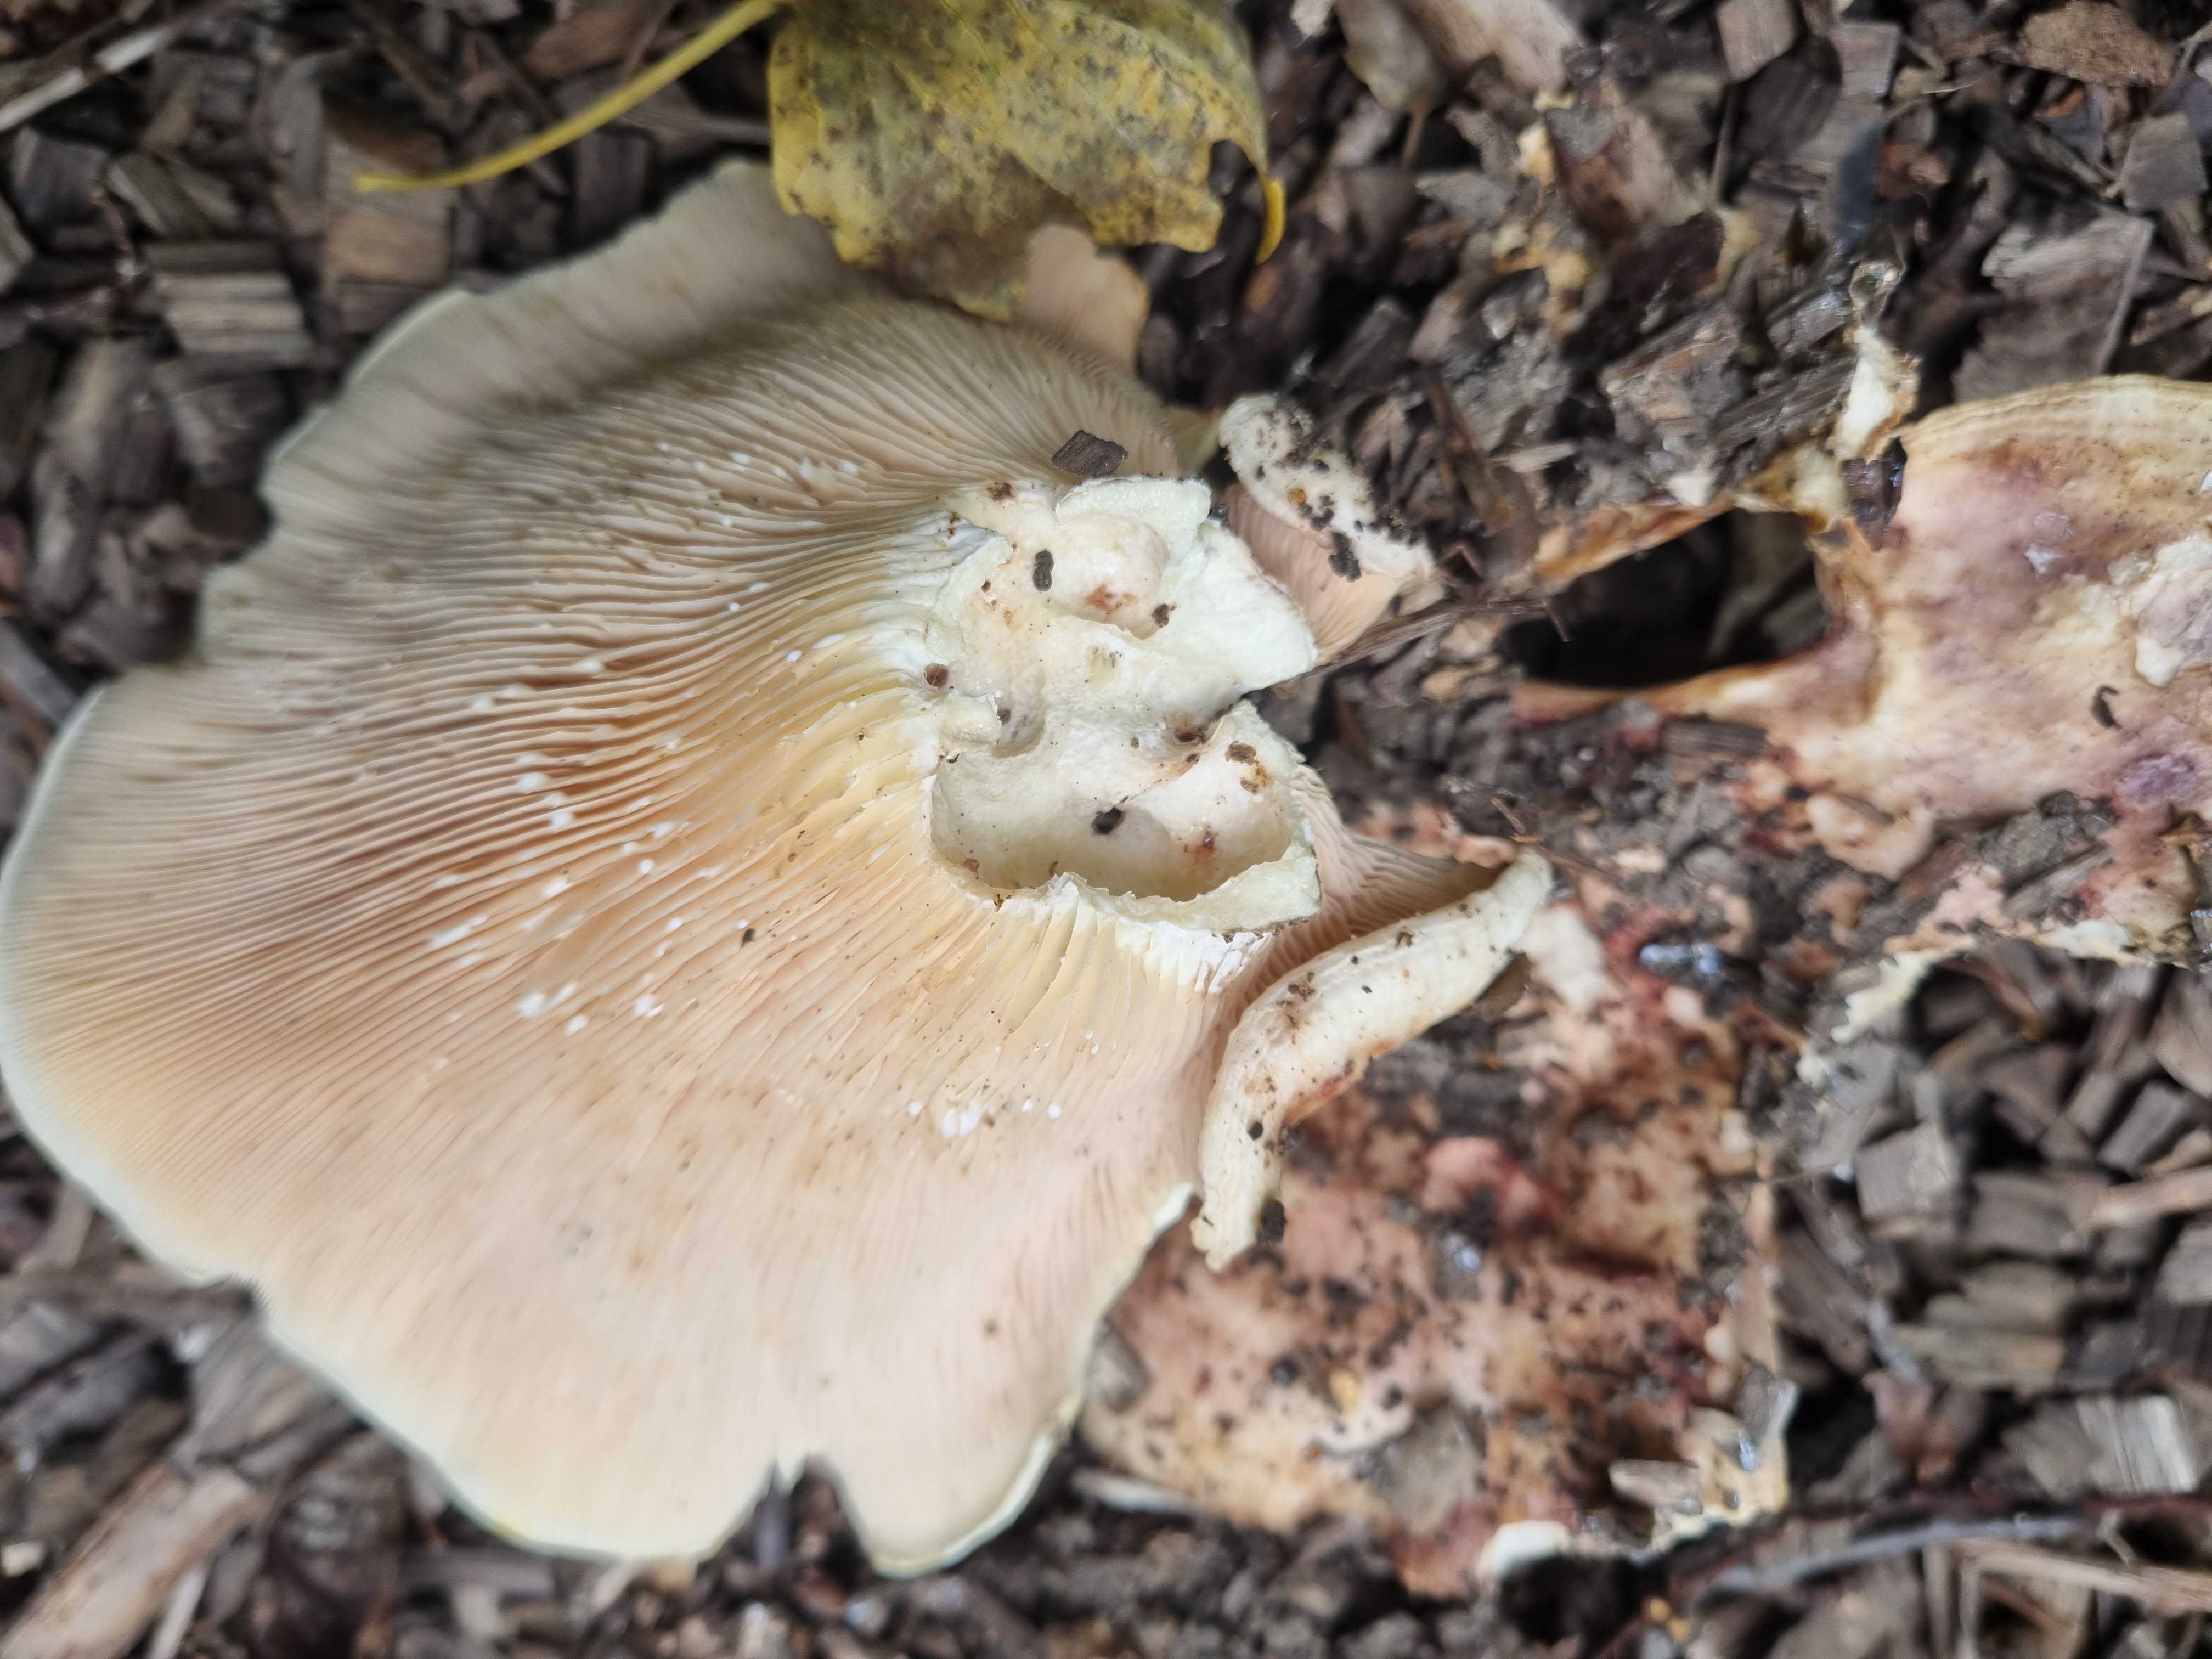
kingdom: Fungi
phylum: Basidiomycota
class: Agaricomycetes
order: Russulales
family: Russulaceae
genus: Lactarius
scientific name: Lactarius controversus
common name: rosabladet mælkehat
